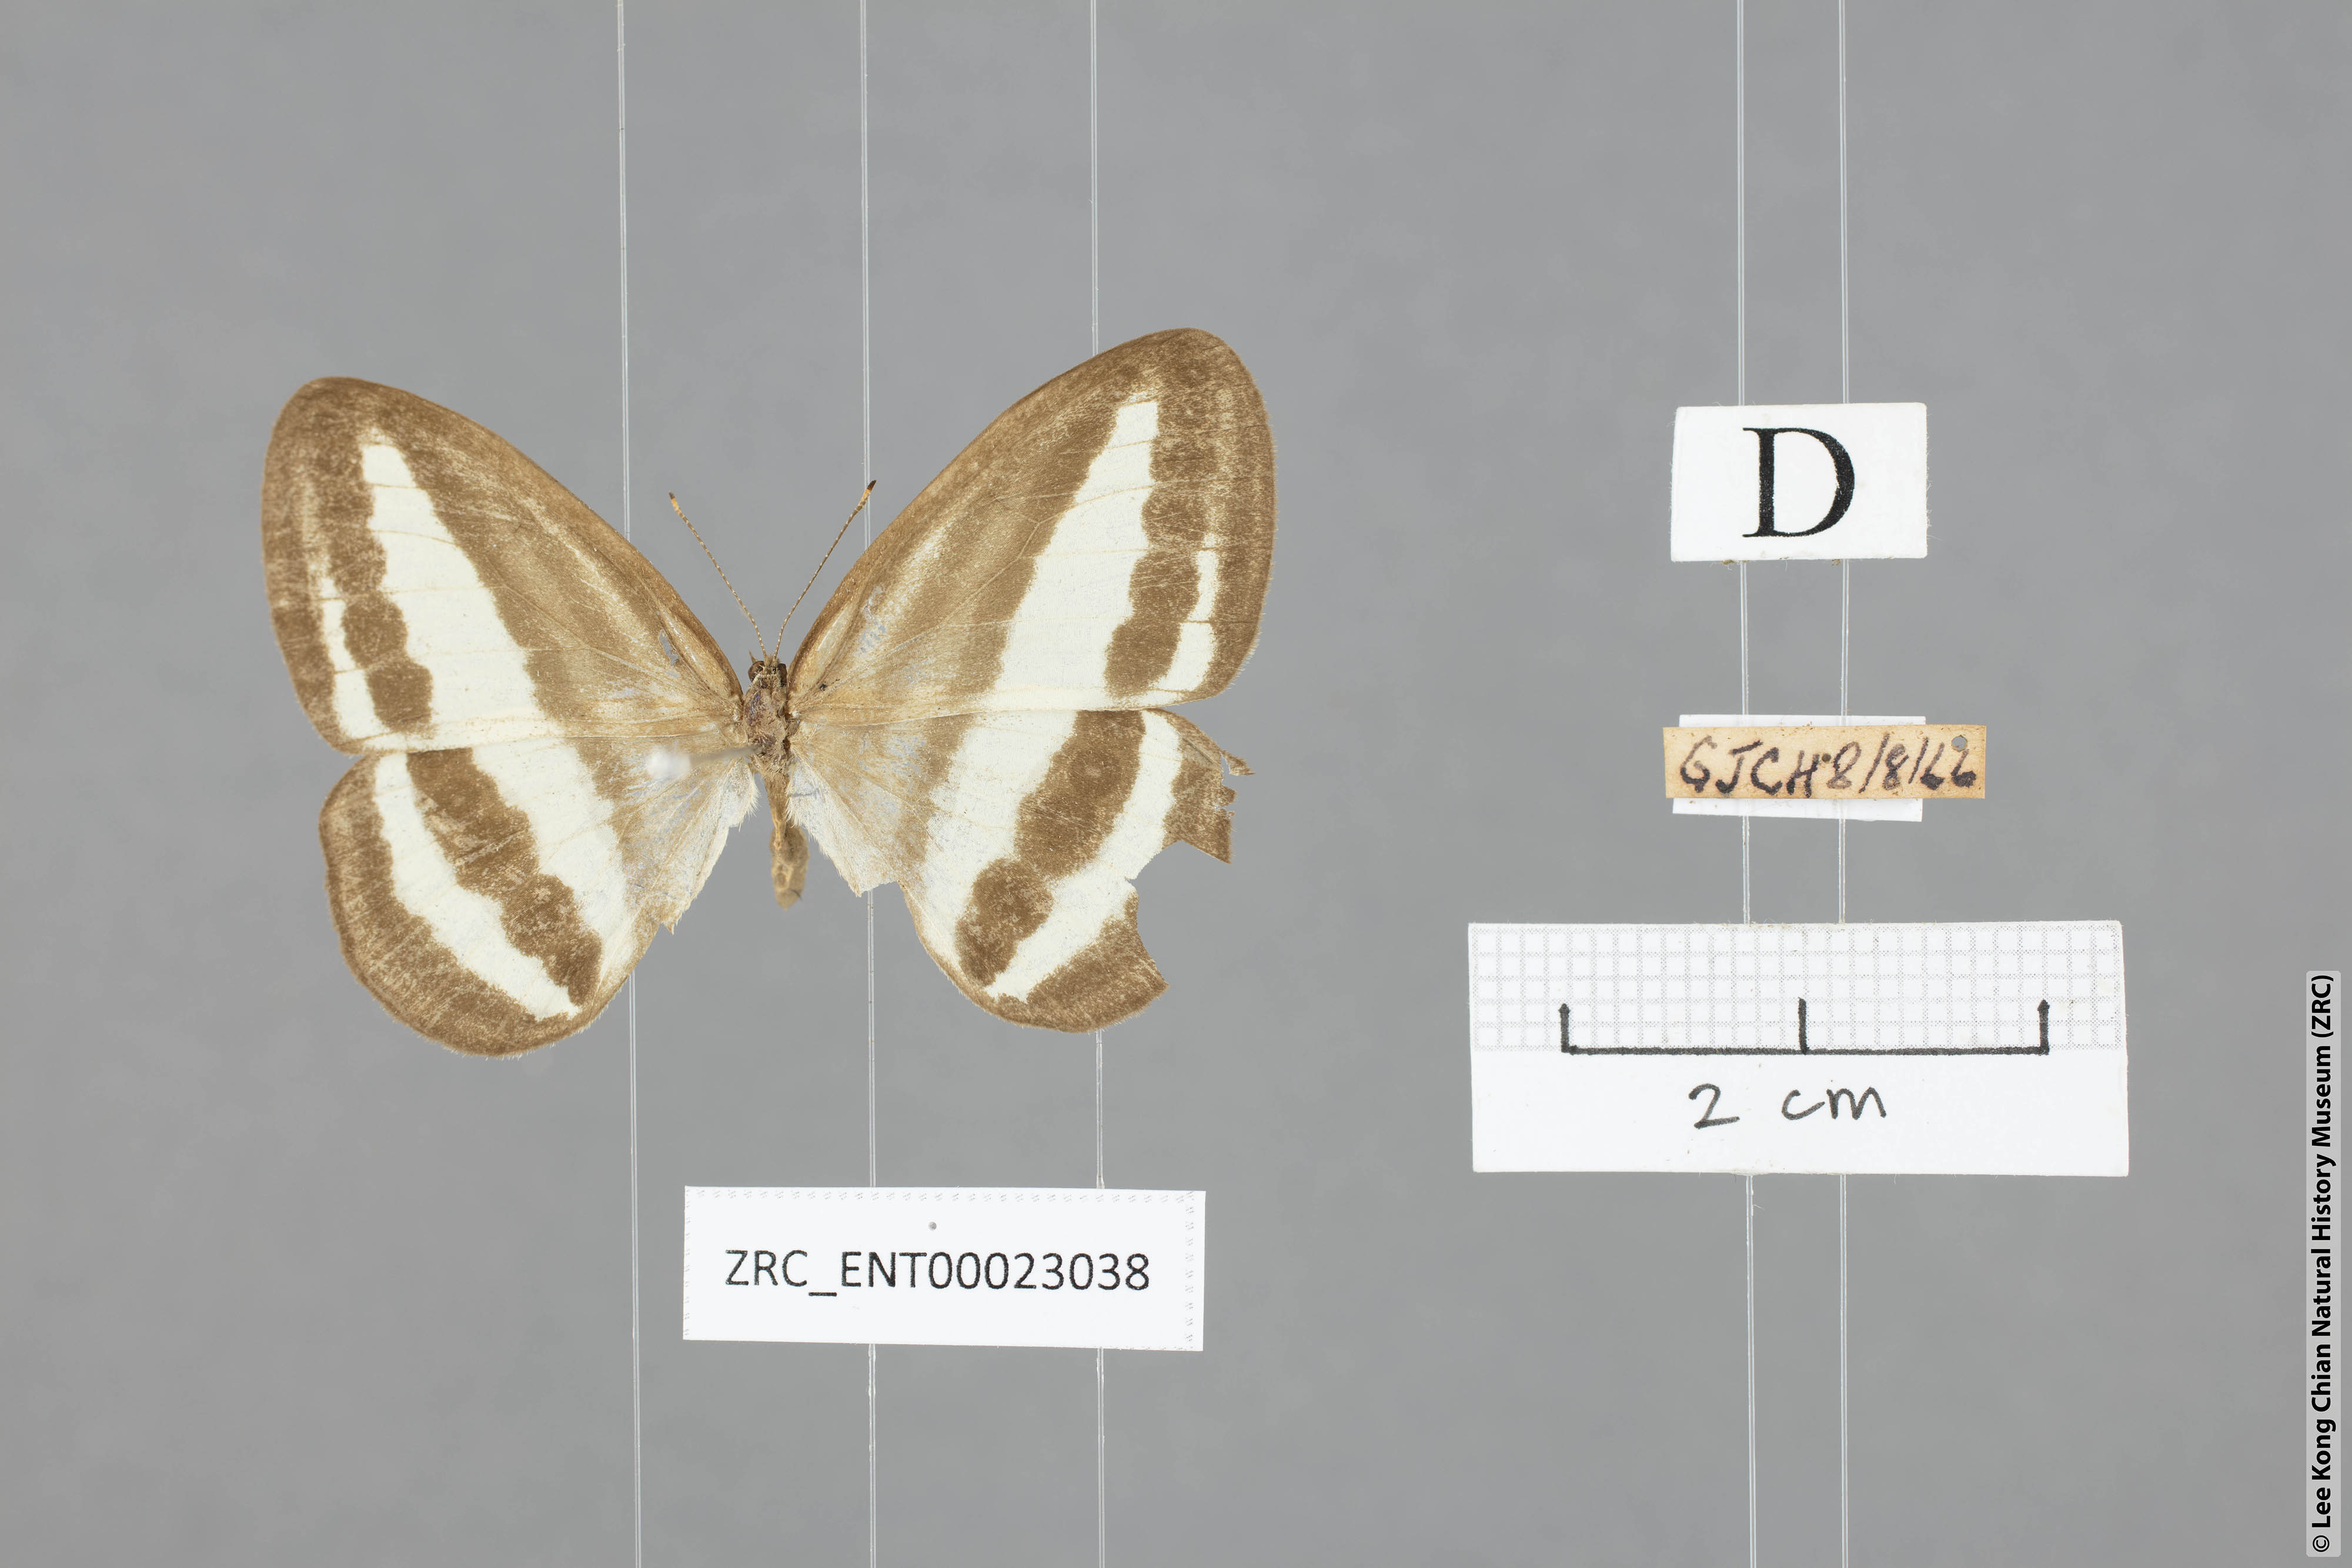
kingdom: Animalia
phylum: Arthropoda
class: Insecta
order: Lepidoptera
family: Nymphalidae
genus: Ragadia
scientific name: Ragadia crisilda
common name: White-striped ringlet
